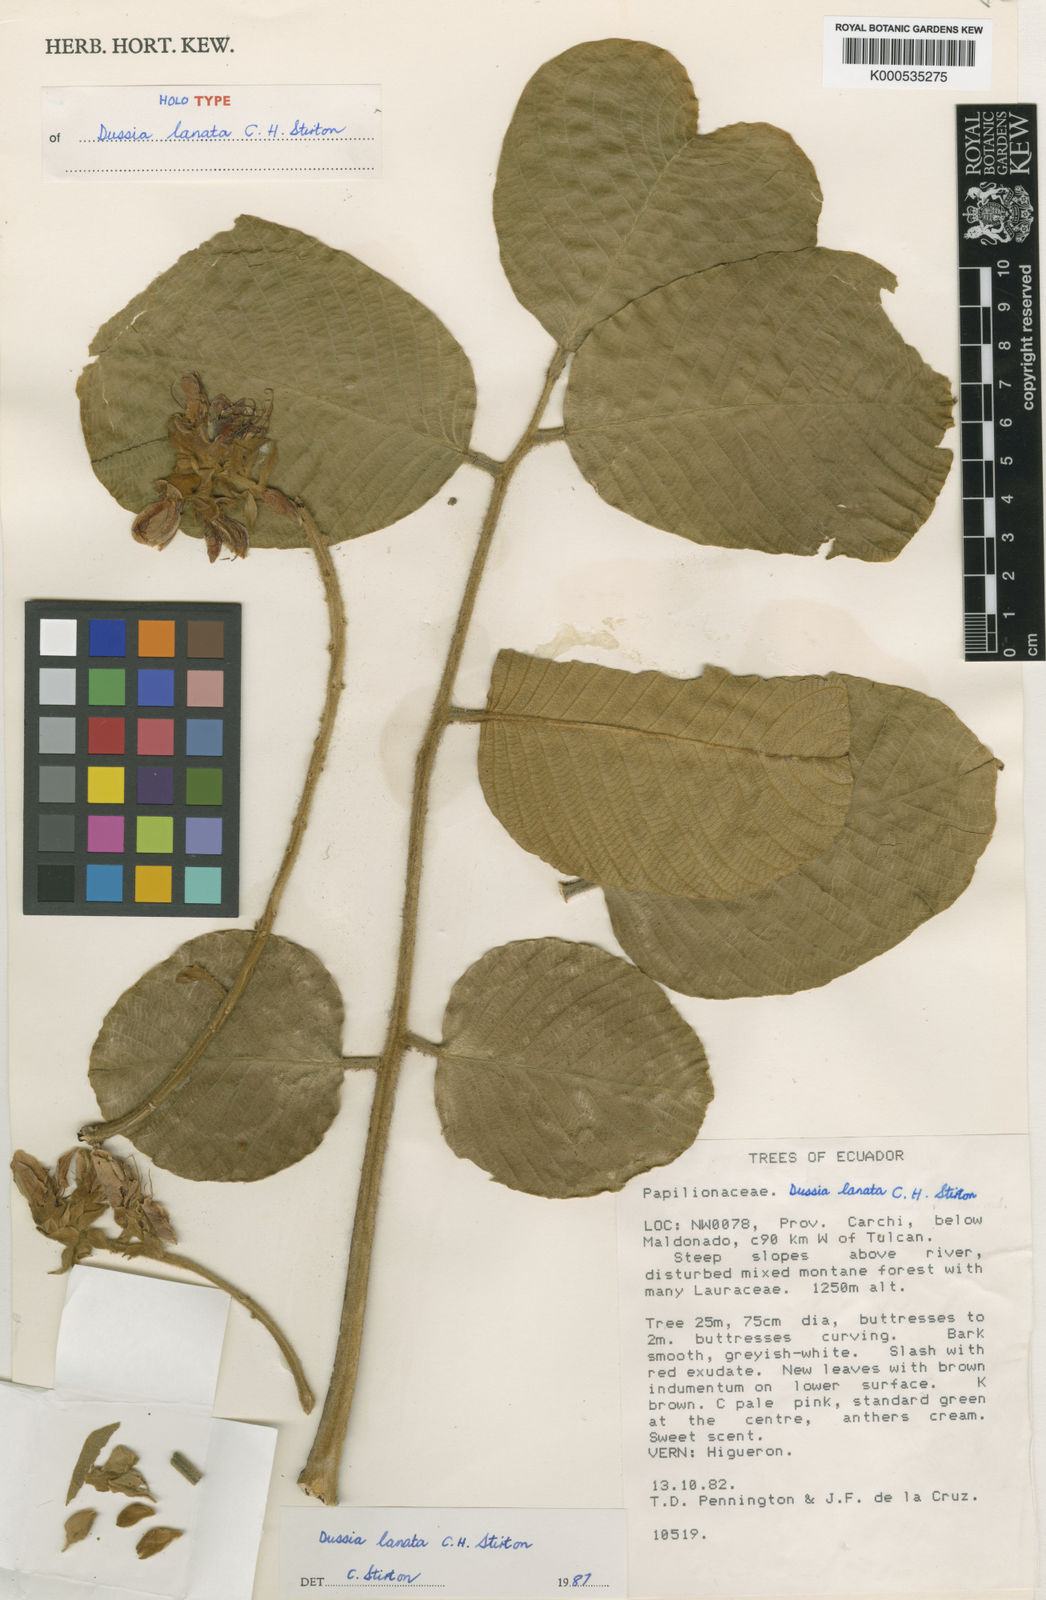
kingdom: Plantae
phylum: Tracheophyta
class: Magnoliopsida
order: Fabales
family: Fabaceae
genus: Dussia
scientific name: Dussia
